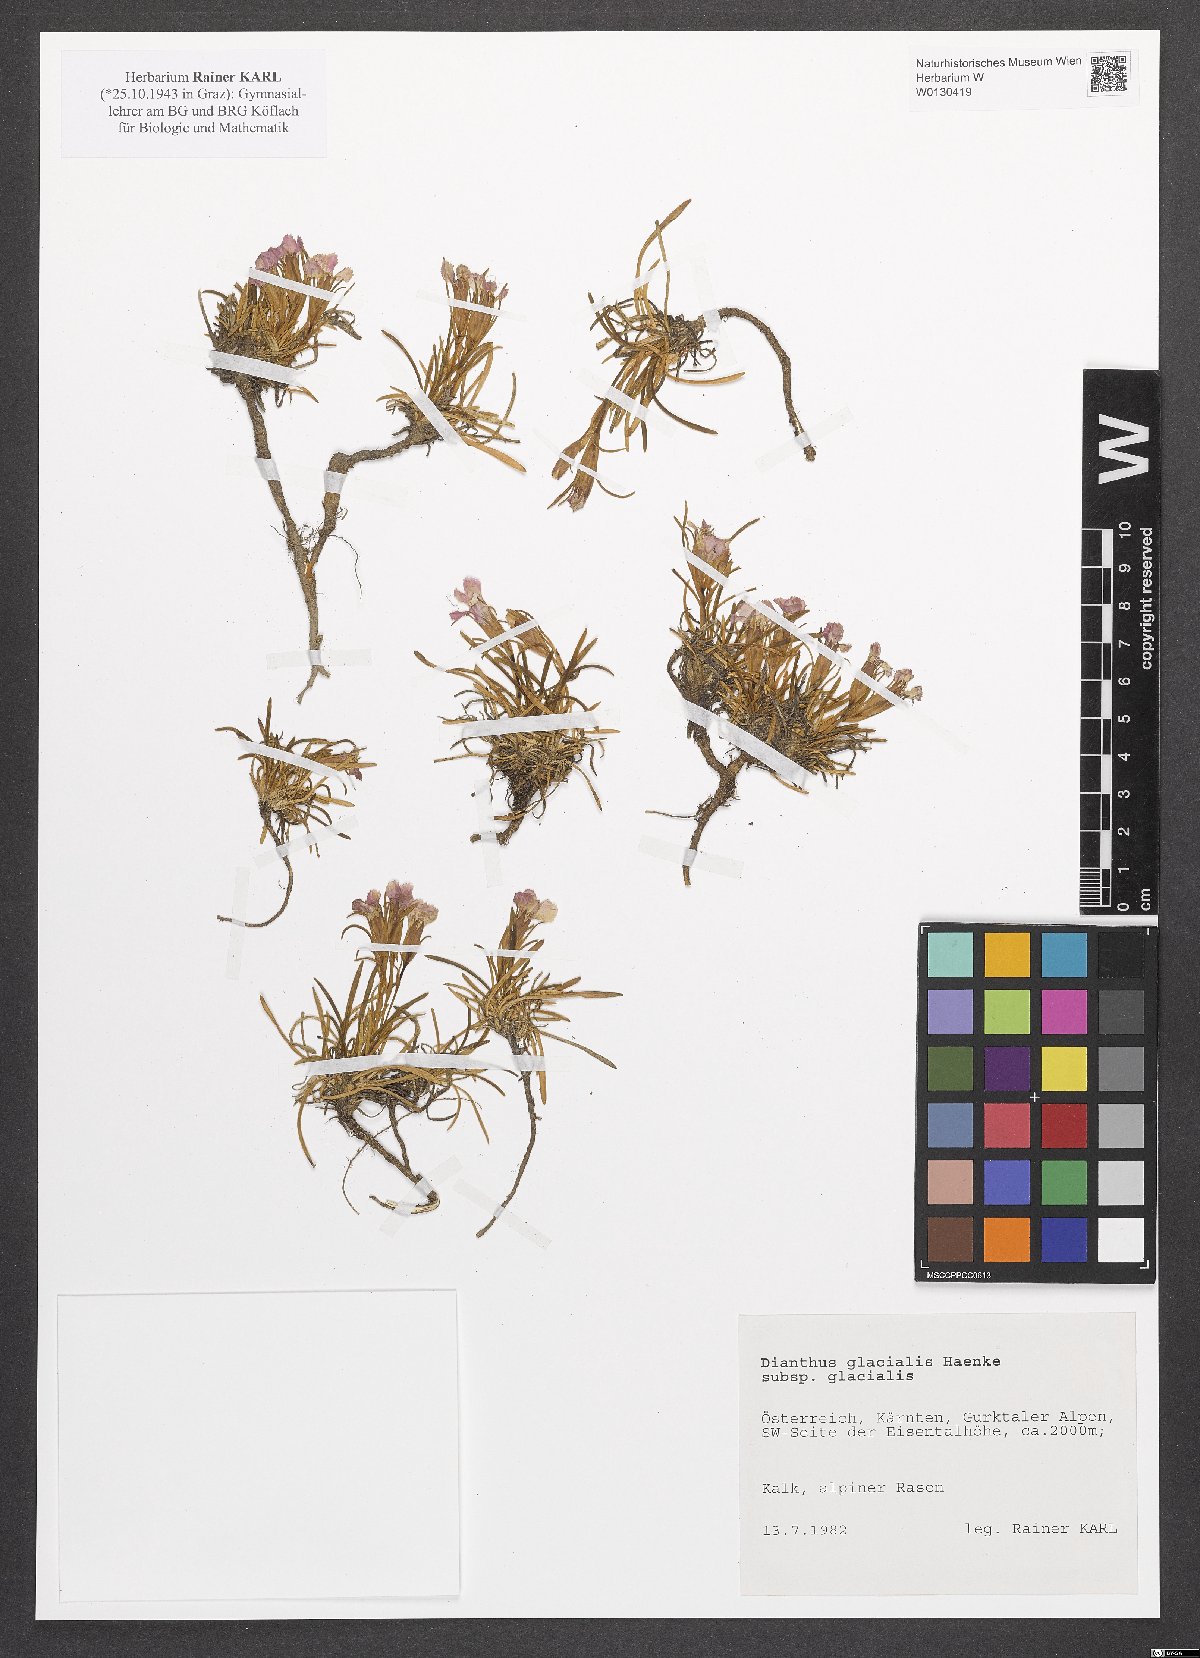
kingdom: Plantae
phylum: Tracheophyta
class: Magnoliopsida
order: Caryophyllales
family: Caryophyllaceae
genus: Dianthus
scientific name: Dianthus glacialis
